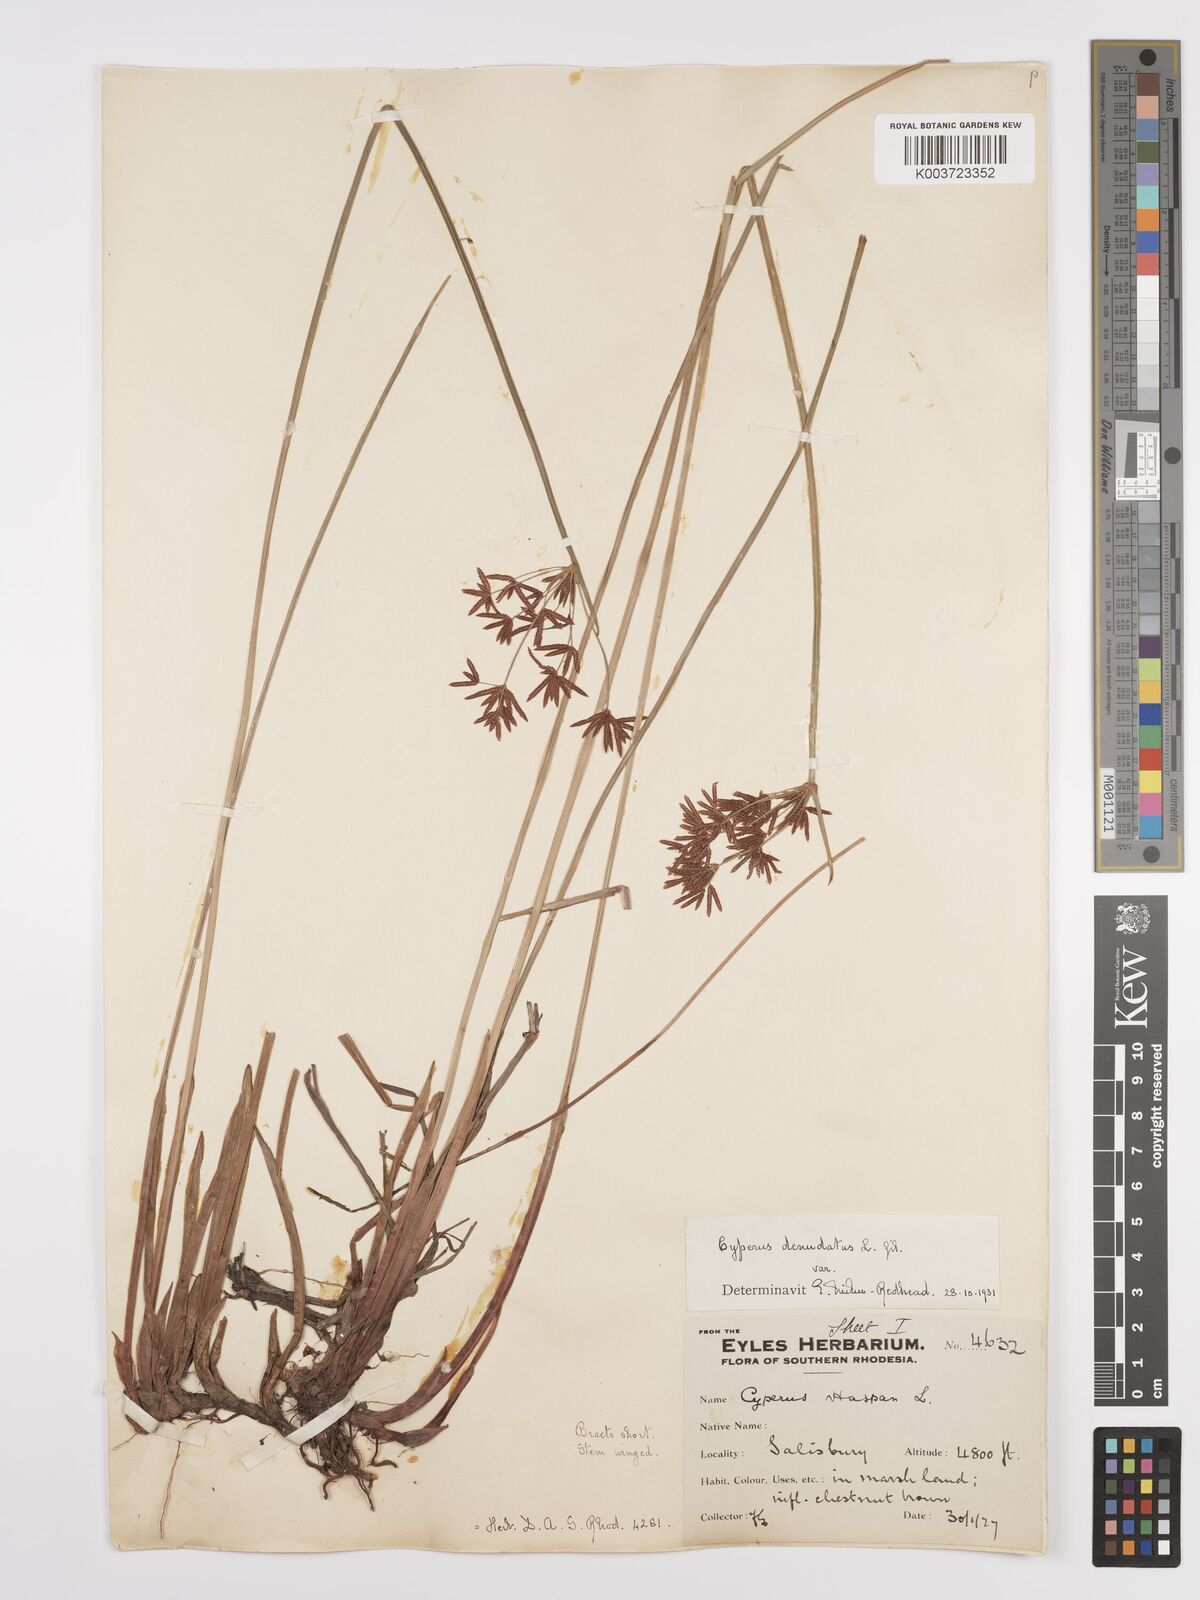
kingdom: Plantae
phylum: Tracheophyta
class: Liliopsida
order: Poales
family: Cyperaceae
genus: Cyperus
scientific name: Cyperus denudatus
